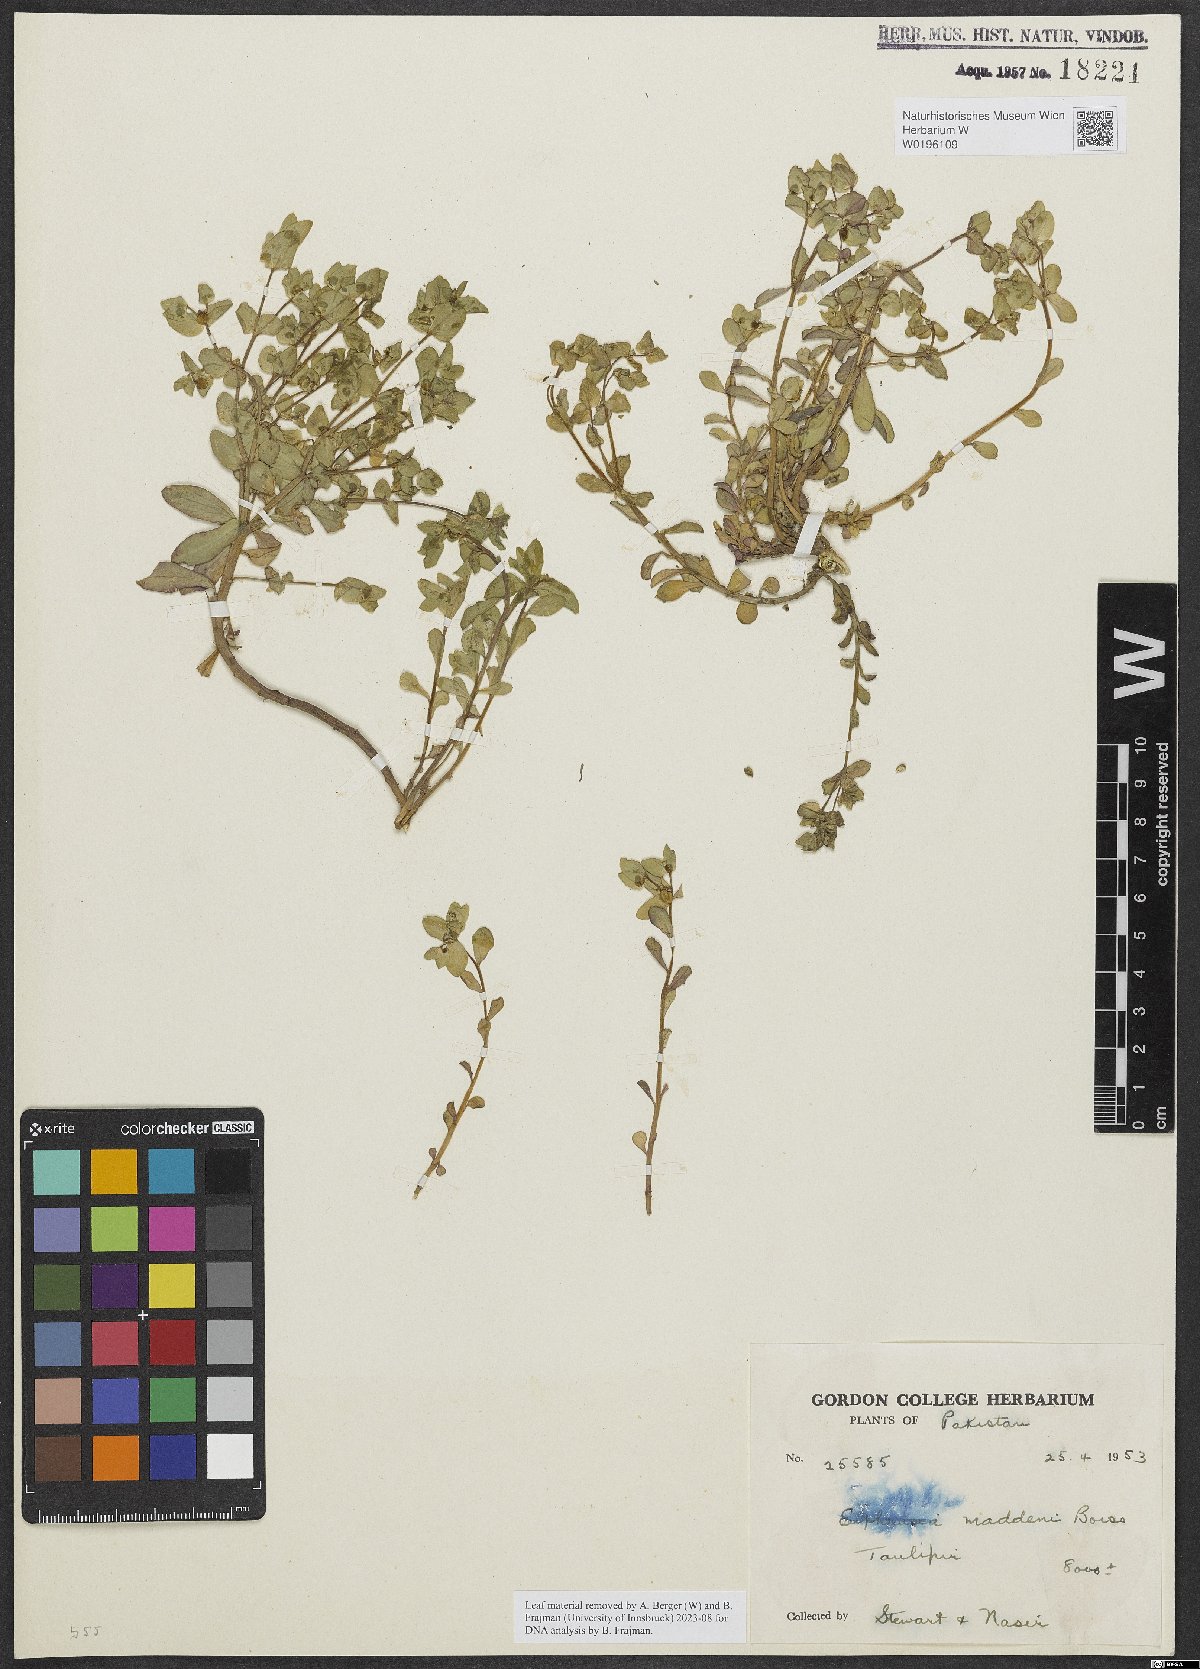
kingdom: Plantae
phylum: Tracheophyta
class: Magnoliopsida
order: Malpighiales
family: Euphorbiaceae
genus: Euphorbia
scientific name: Euphorbia maddenii
